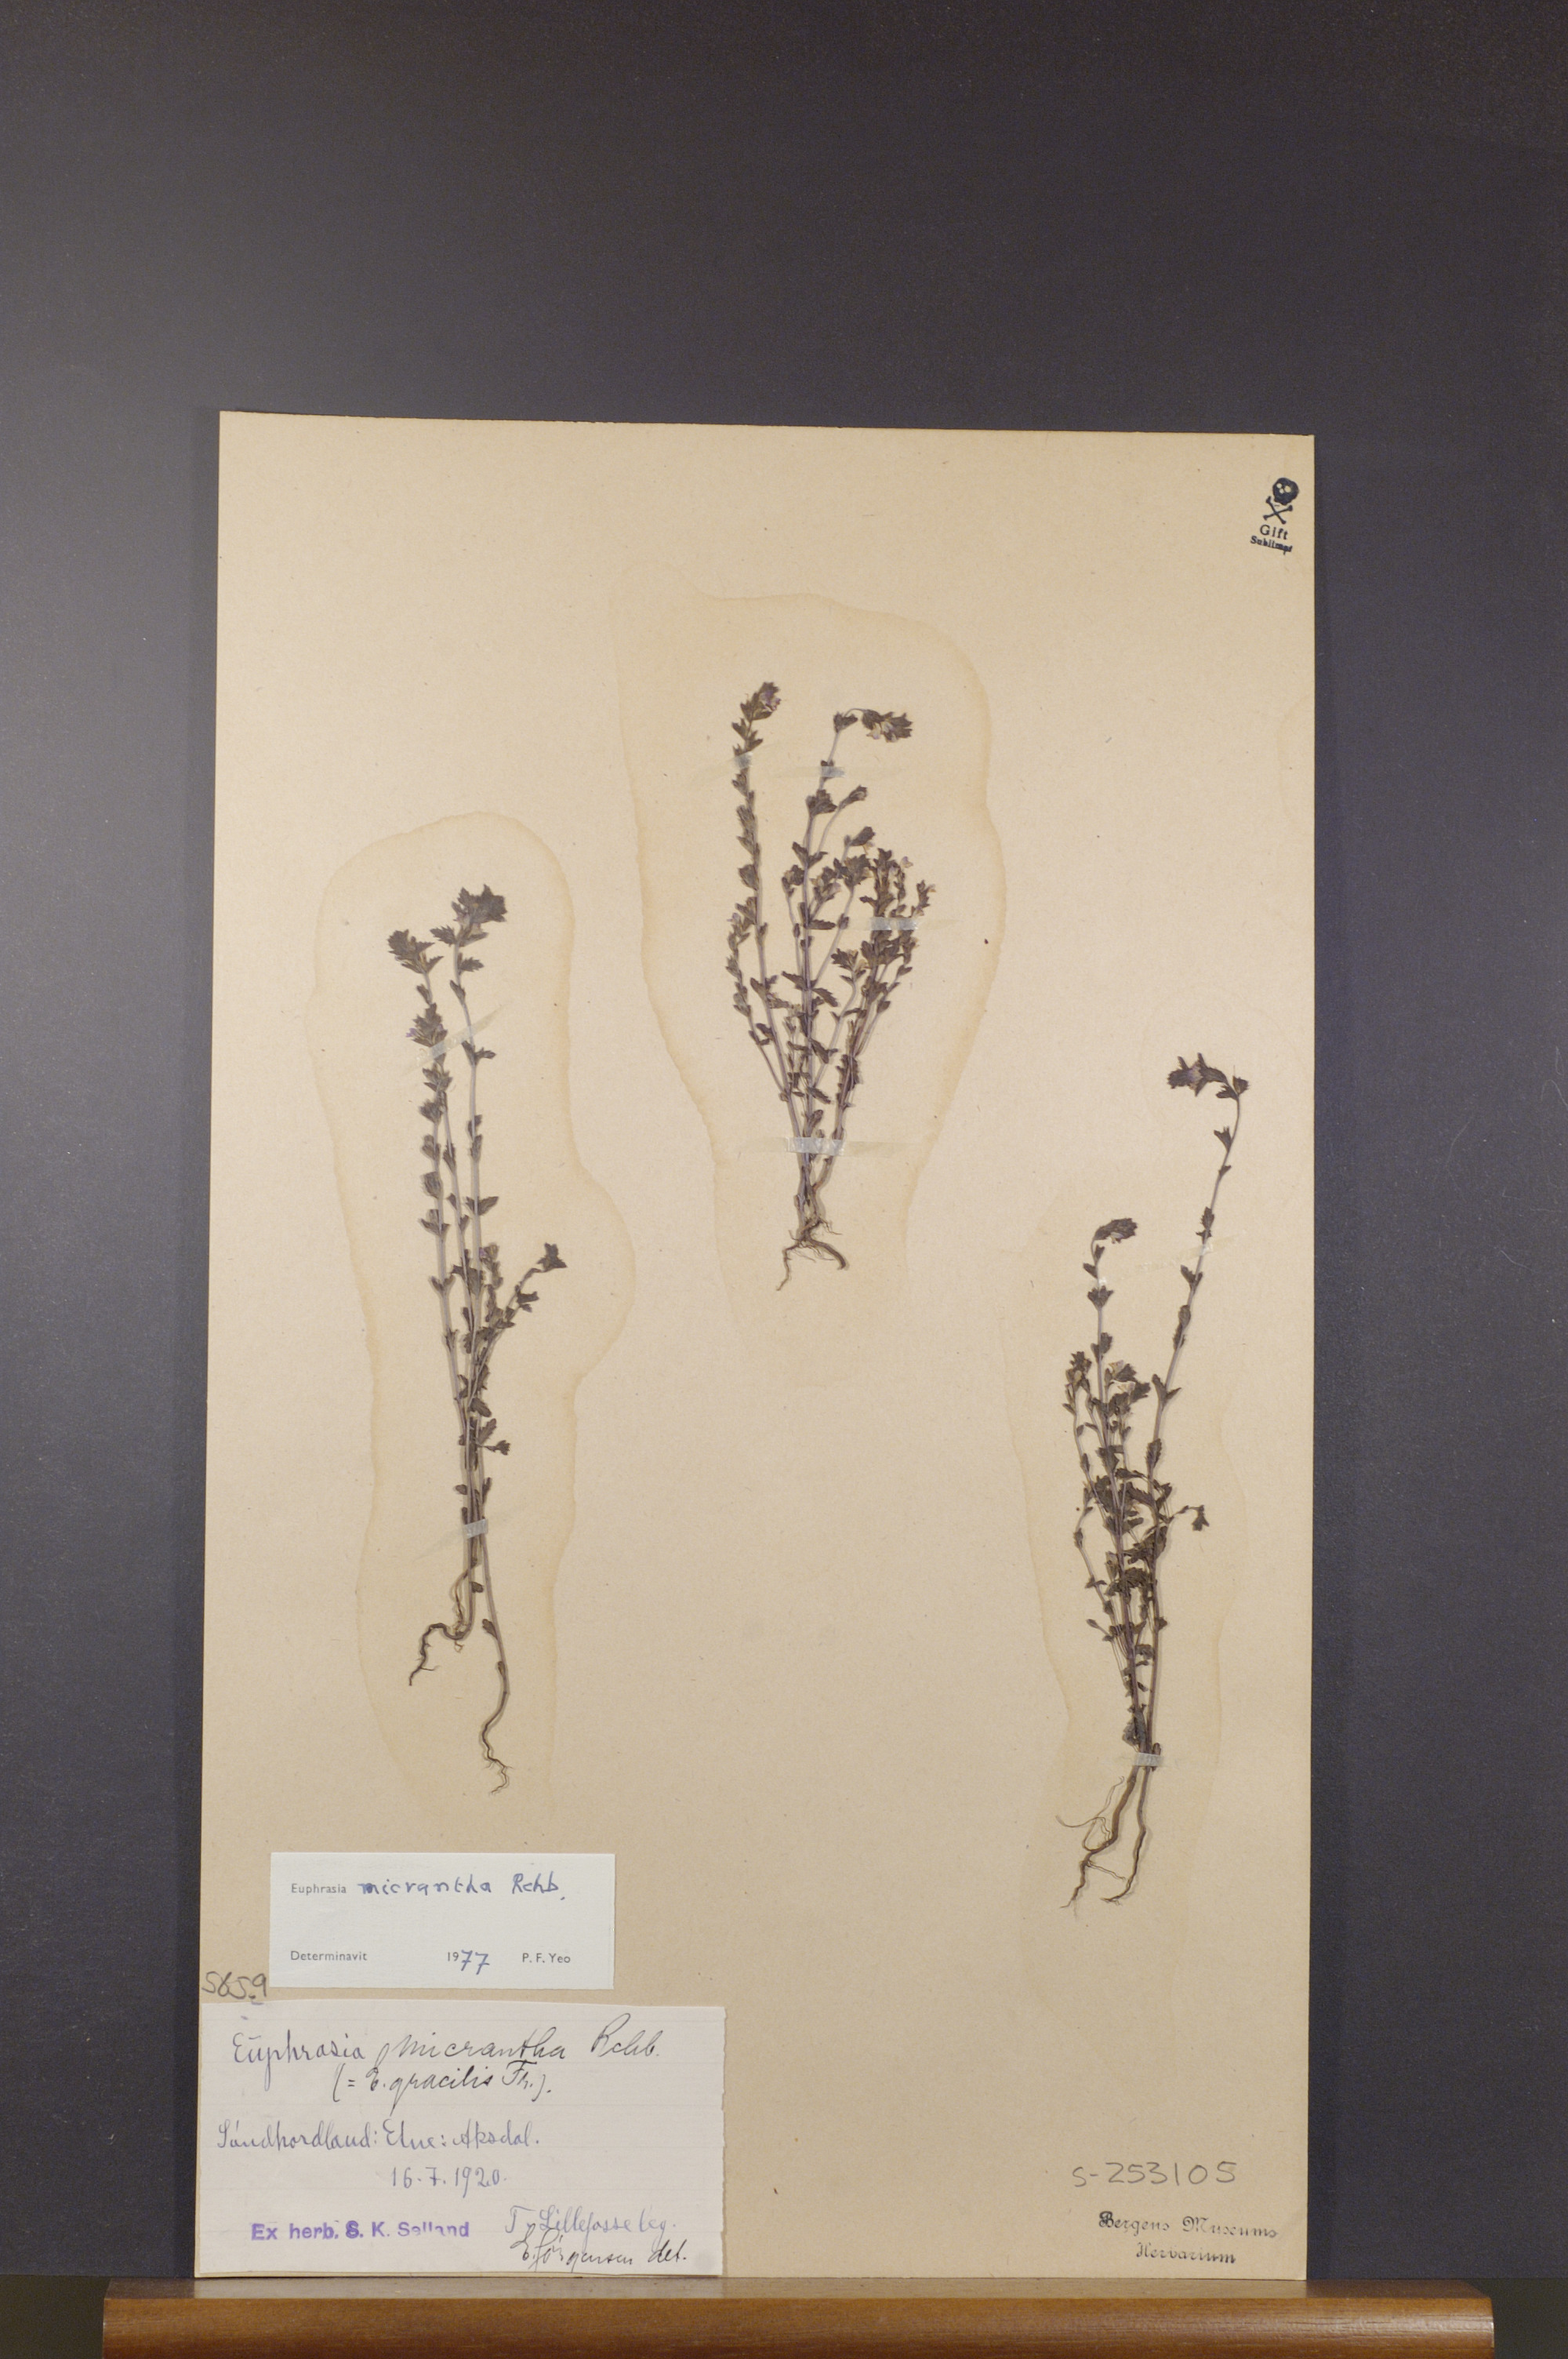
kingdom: Plantae
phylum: Tracheophyta
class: Magnoliopsida
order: Lamiales
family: Orobanchaceae
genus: Euphrasia
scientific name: Euphrasia micrantha
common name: Northern eyebright
